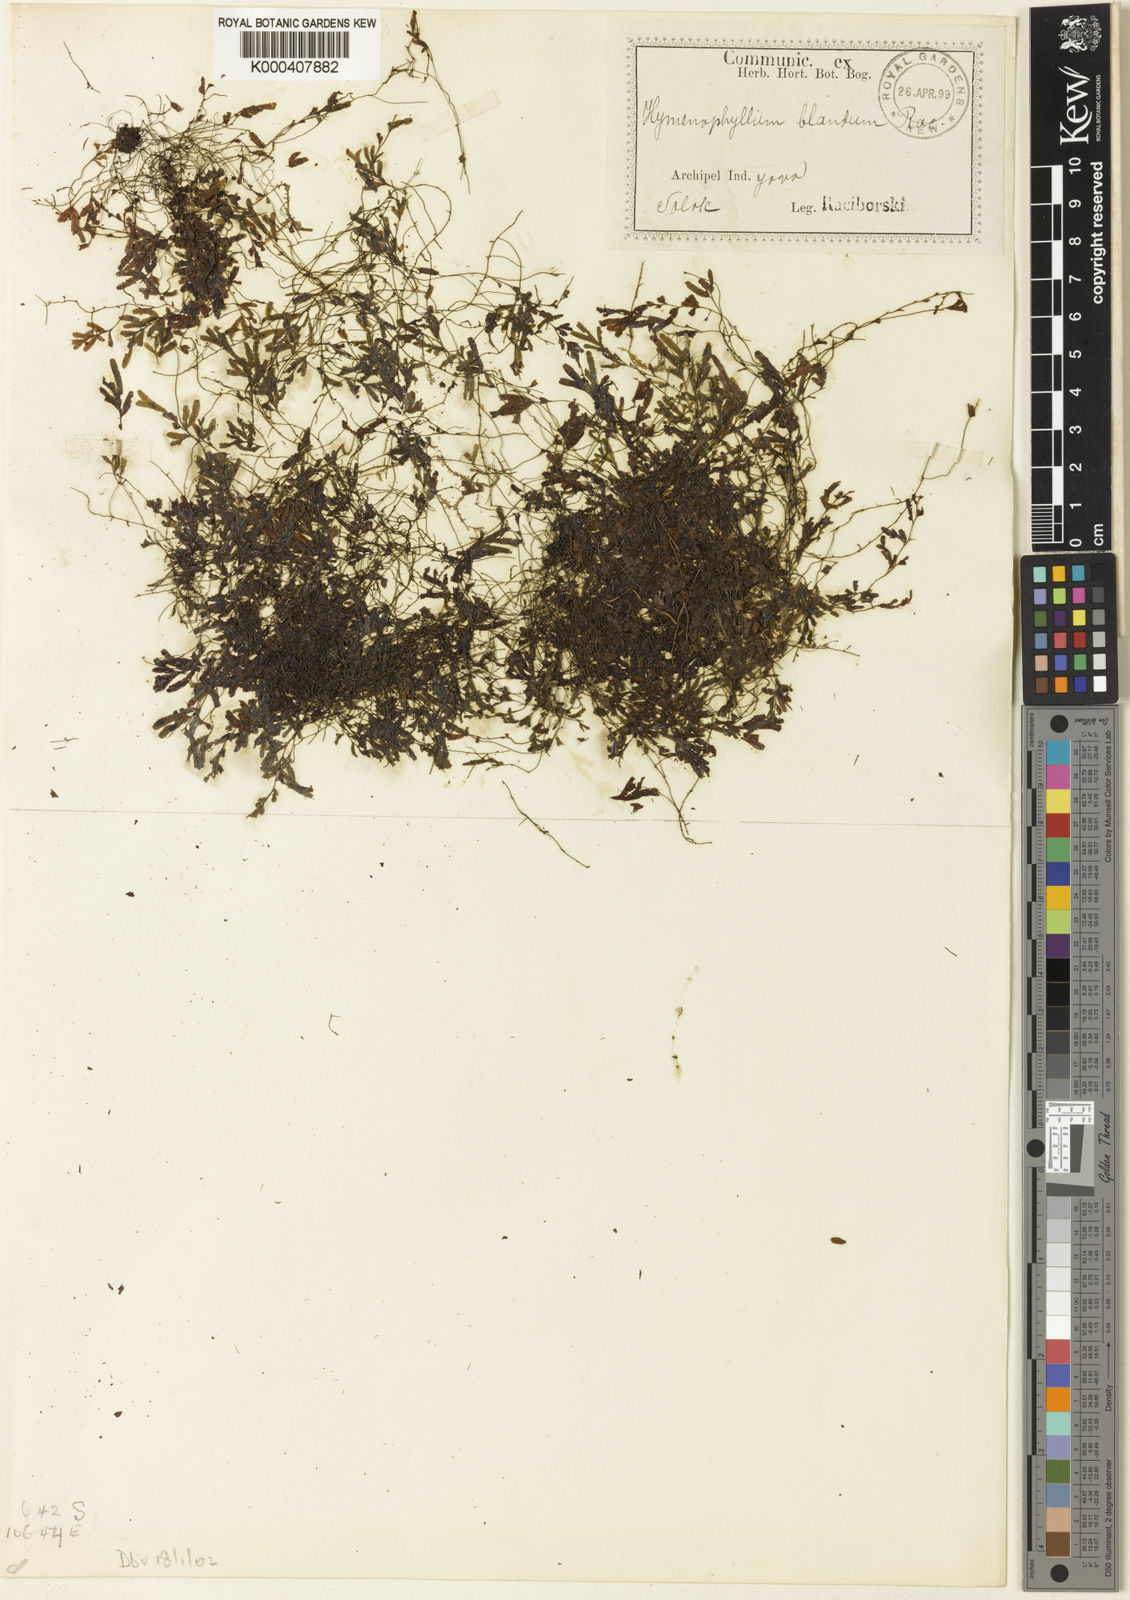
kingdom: Plantae
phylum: Tracheophyta
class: Polypodiopsida
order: Hymenophyllales
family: Hymenophyllaceae
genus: Hymenophyllum
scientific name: Hymenophyllum blandum
